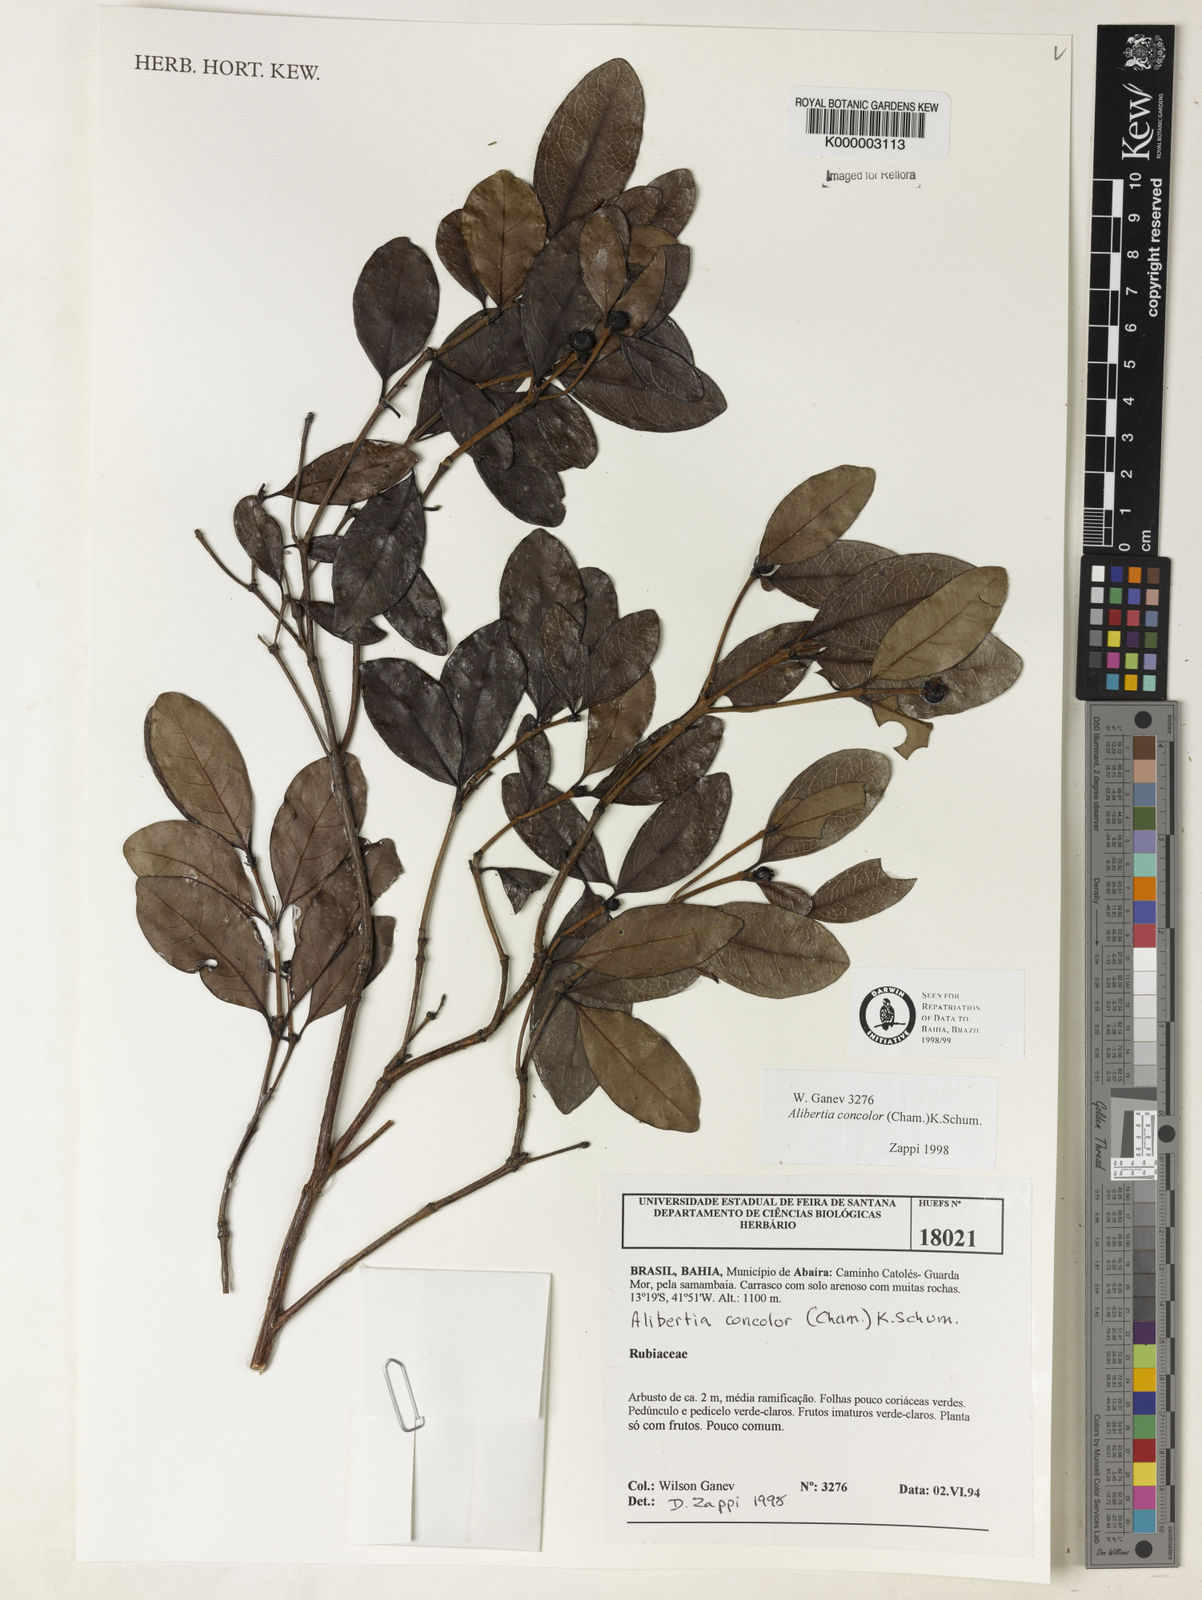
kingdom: Plantae
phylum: Tracheophyta
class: Magnoliopsida
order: Gentianales
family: Rubiaceae
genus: Cordiera
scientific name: Cordiera concolor
